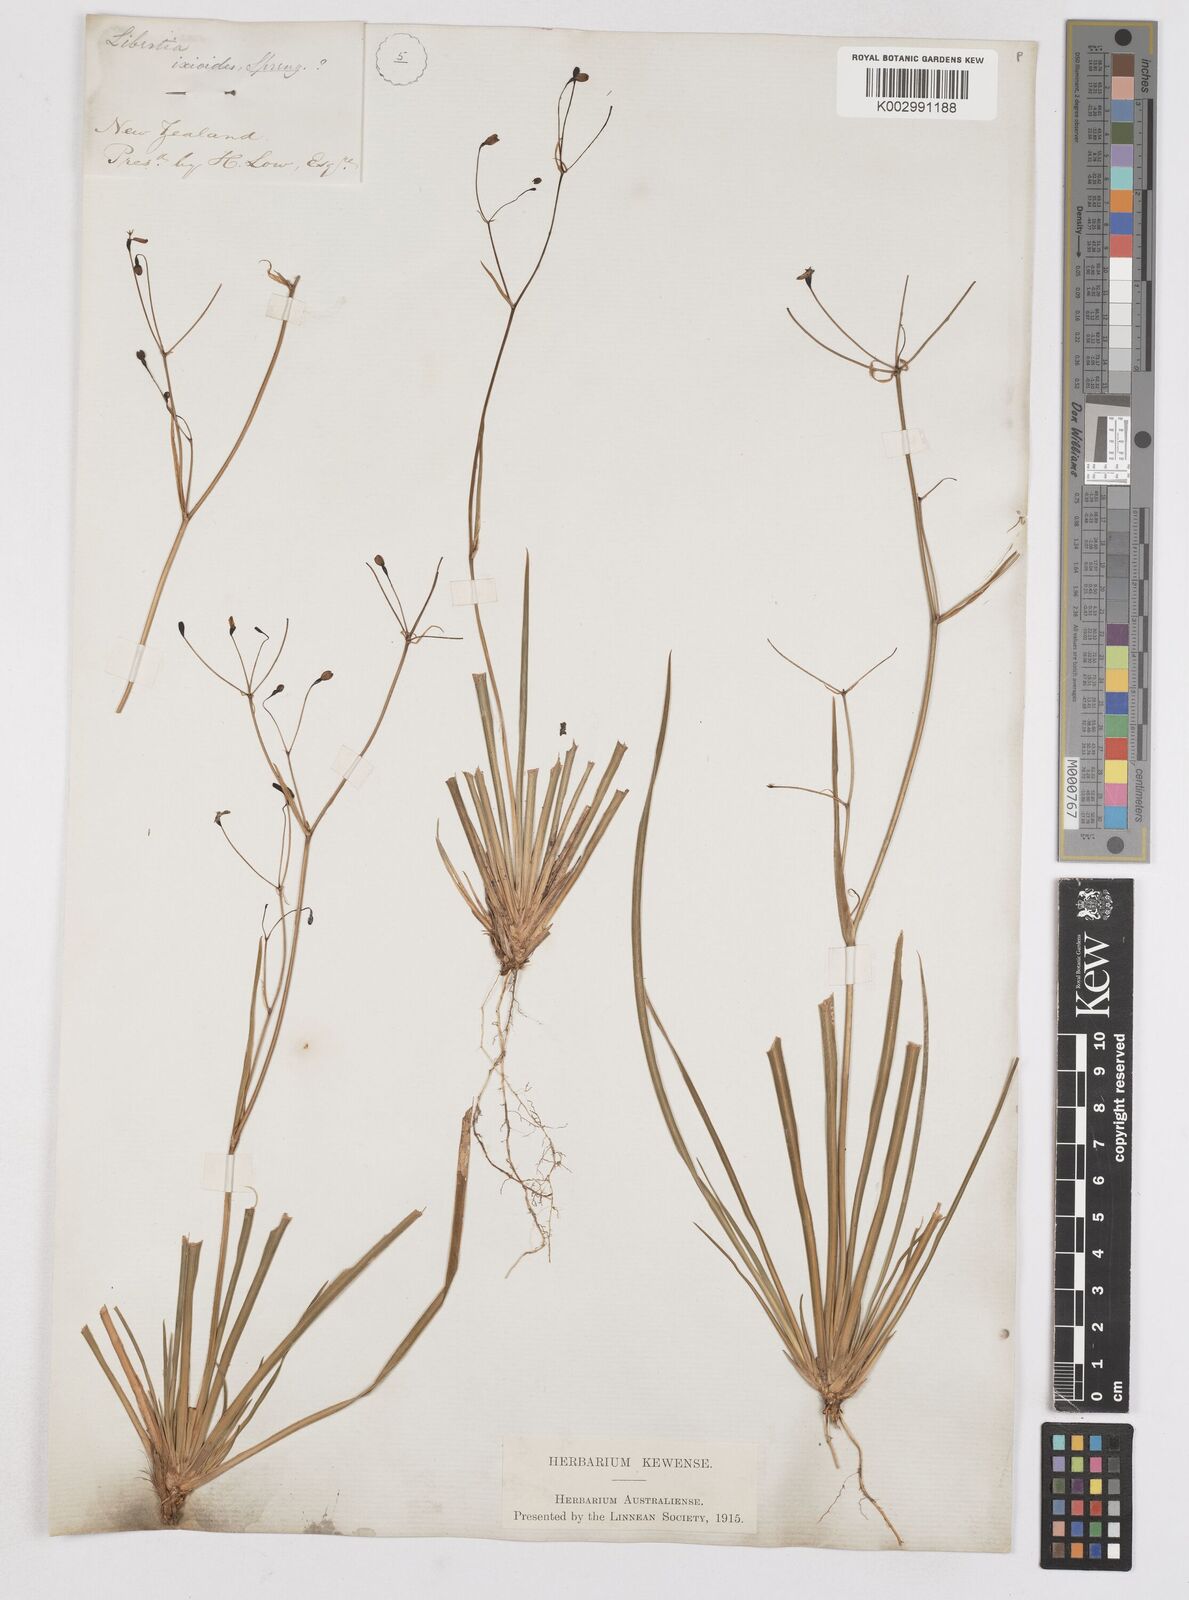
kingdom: Plantae
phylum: Tracheophyta
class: Liliopsida
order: Asparagales
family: Iridaceae
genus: Libertia
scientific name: Libertia ixioides
